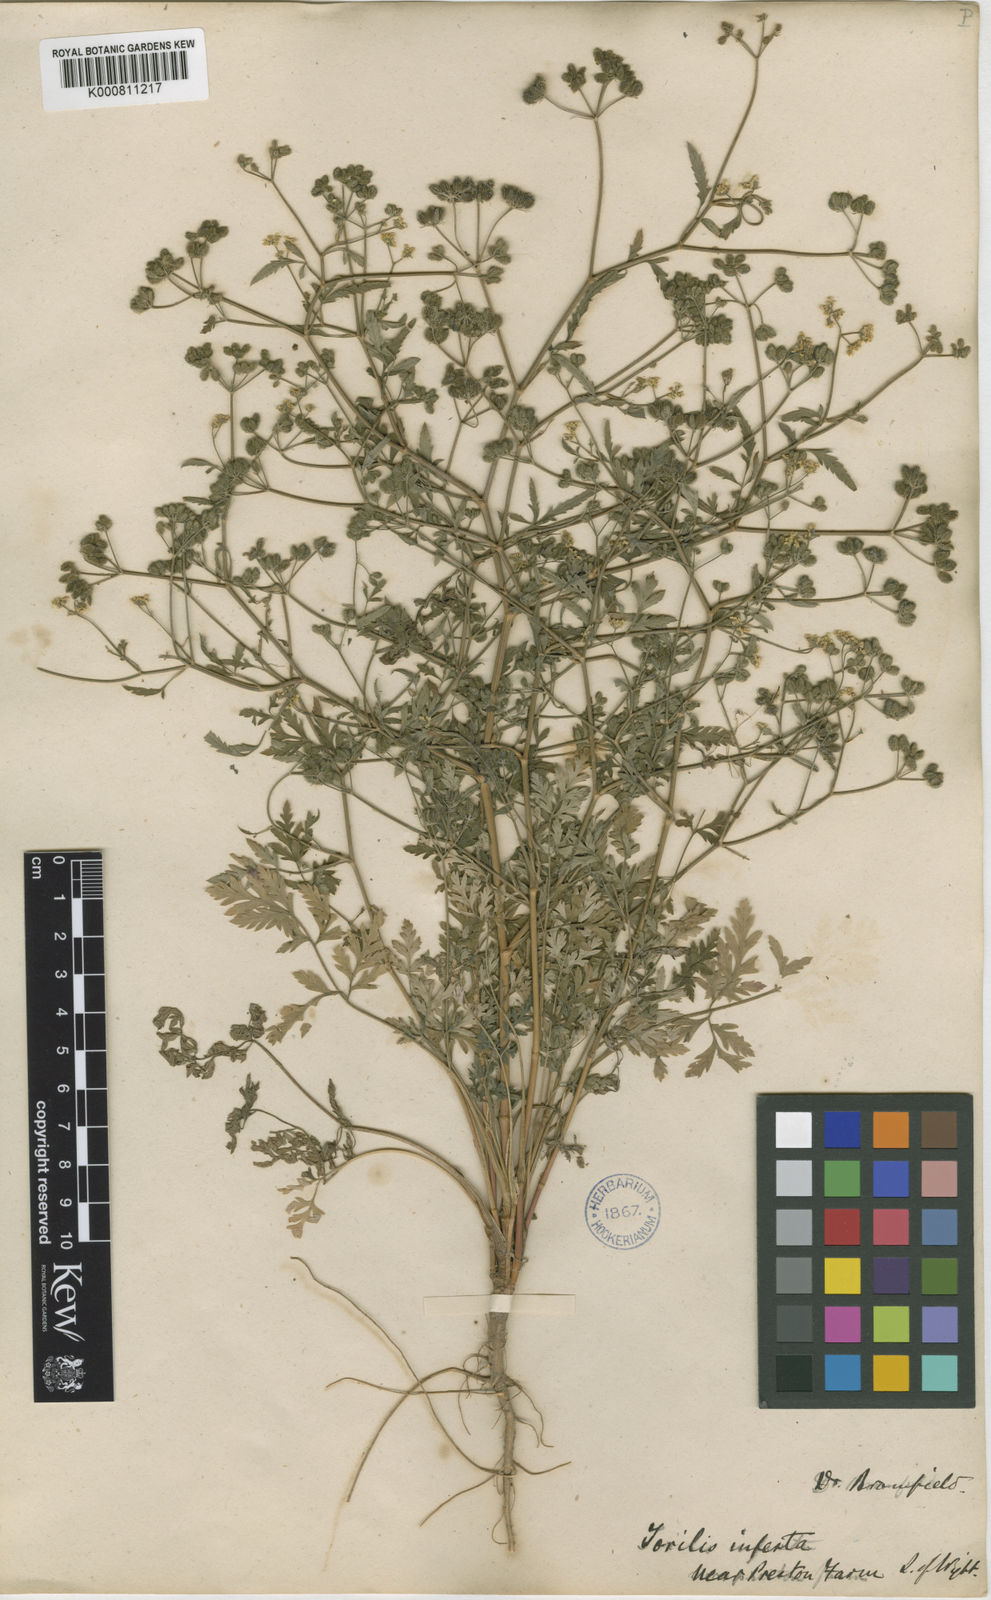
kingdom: Plantae
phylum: Tracheophyta
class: Magnoliopsida
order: Apiales
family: Apiaceae
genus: Torilis
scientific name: Torilis arvensis
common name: Spreading hedge-parsley
